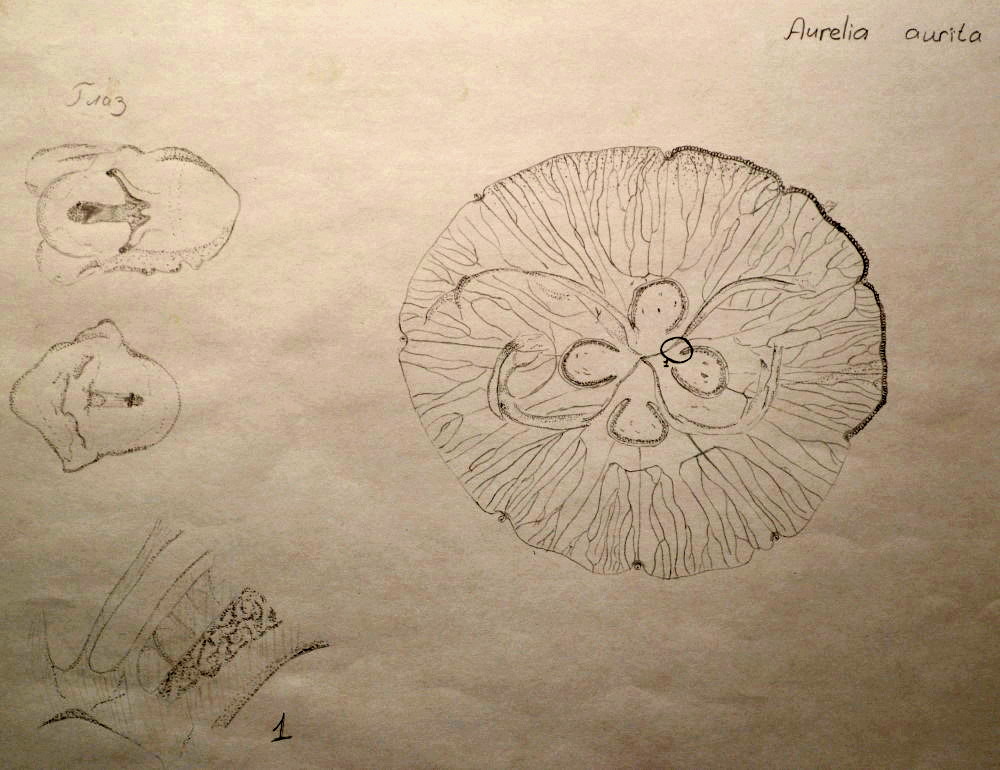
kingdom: Animalia
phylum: Cnidaria
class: Scyphozoa
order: Semaeostomeae
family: Ulmaridae
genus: Aurelia
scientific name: Aurelia aurita
